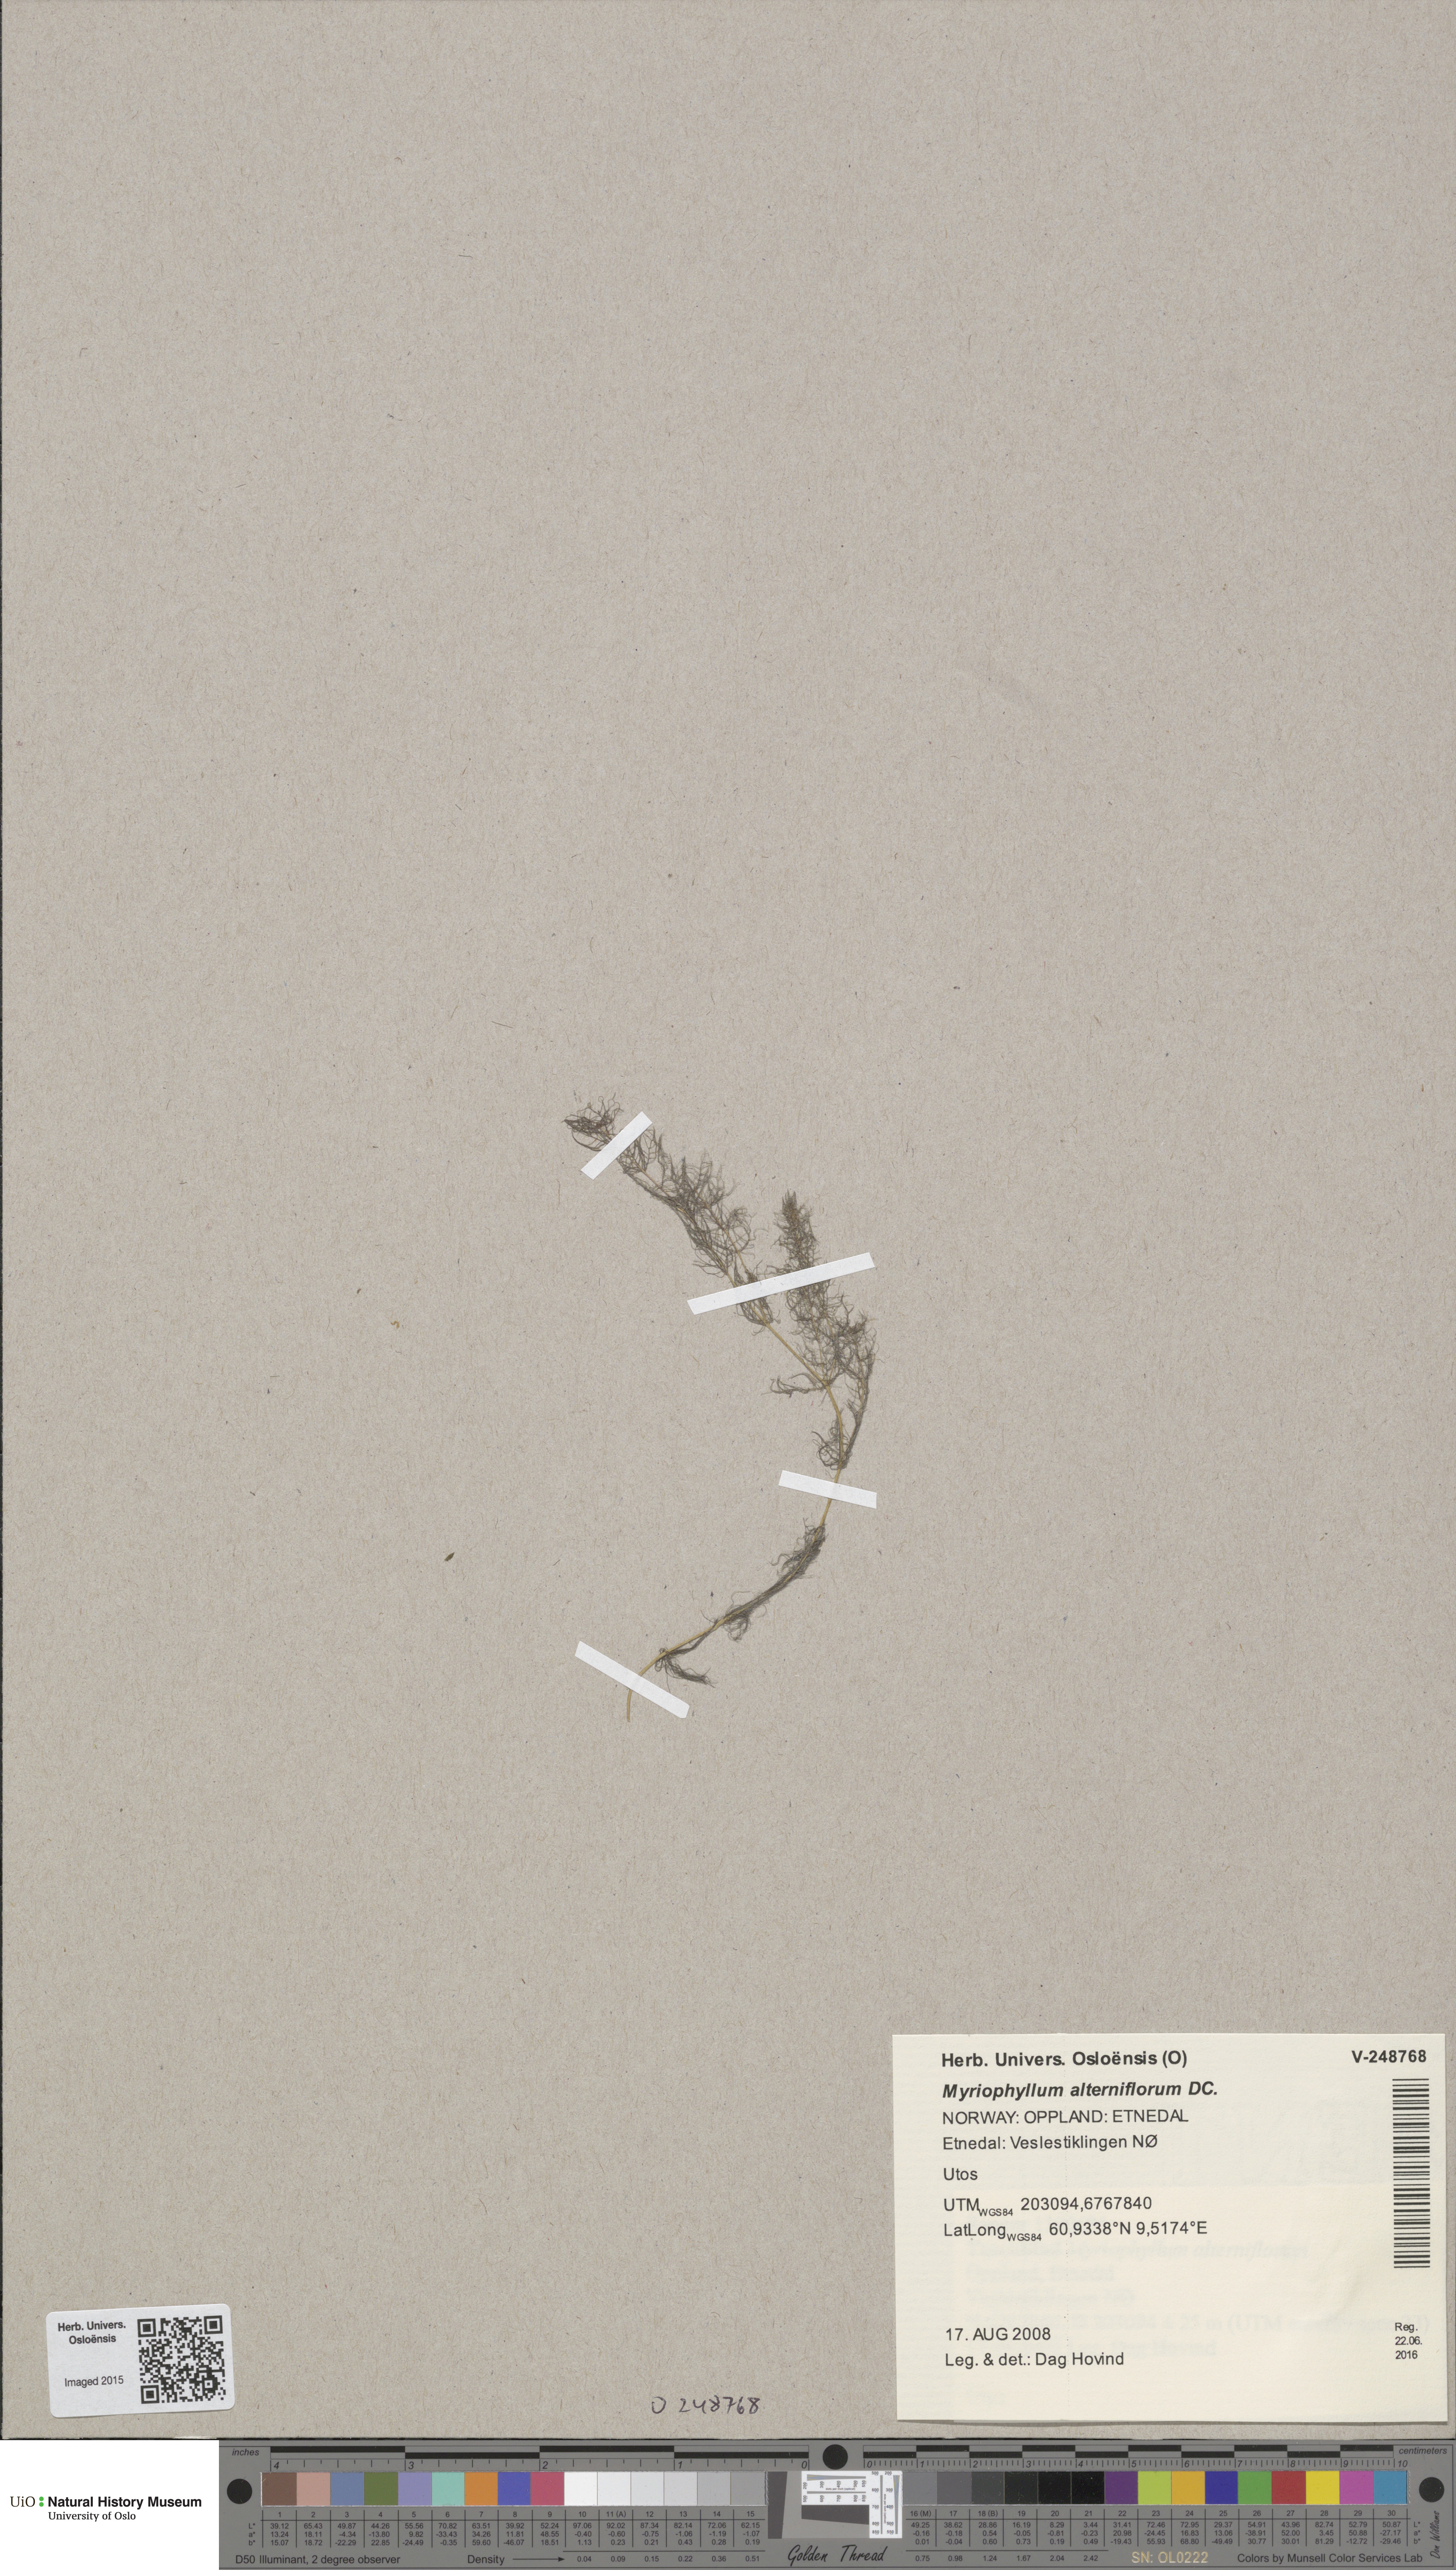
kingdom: Plantae
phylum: Tracheophyta
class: Magnoliopsida
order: Saxifragales
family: Haloragaceae
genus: Myriophyllum
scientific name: Myriophyllum alterniflorum
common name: Alternate water-milfoil
